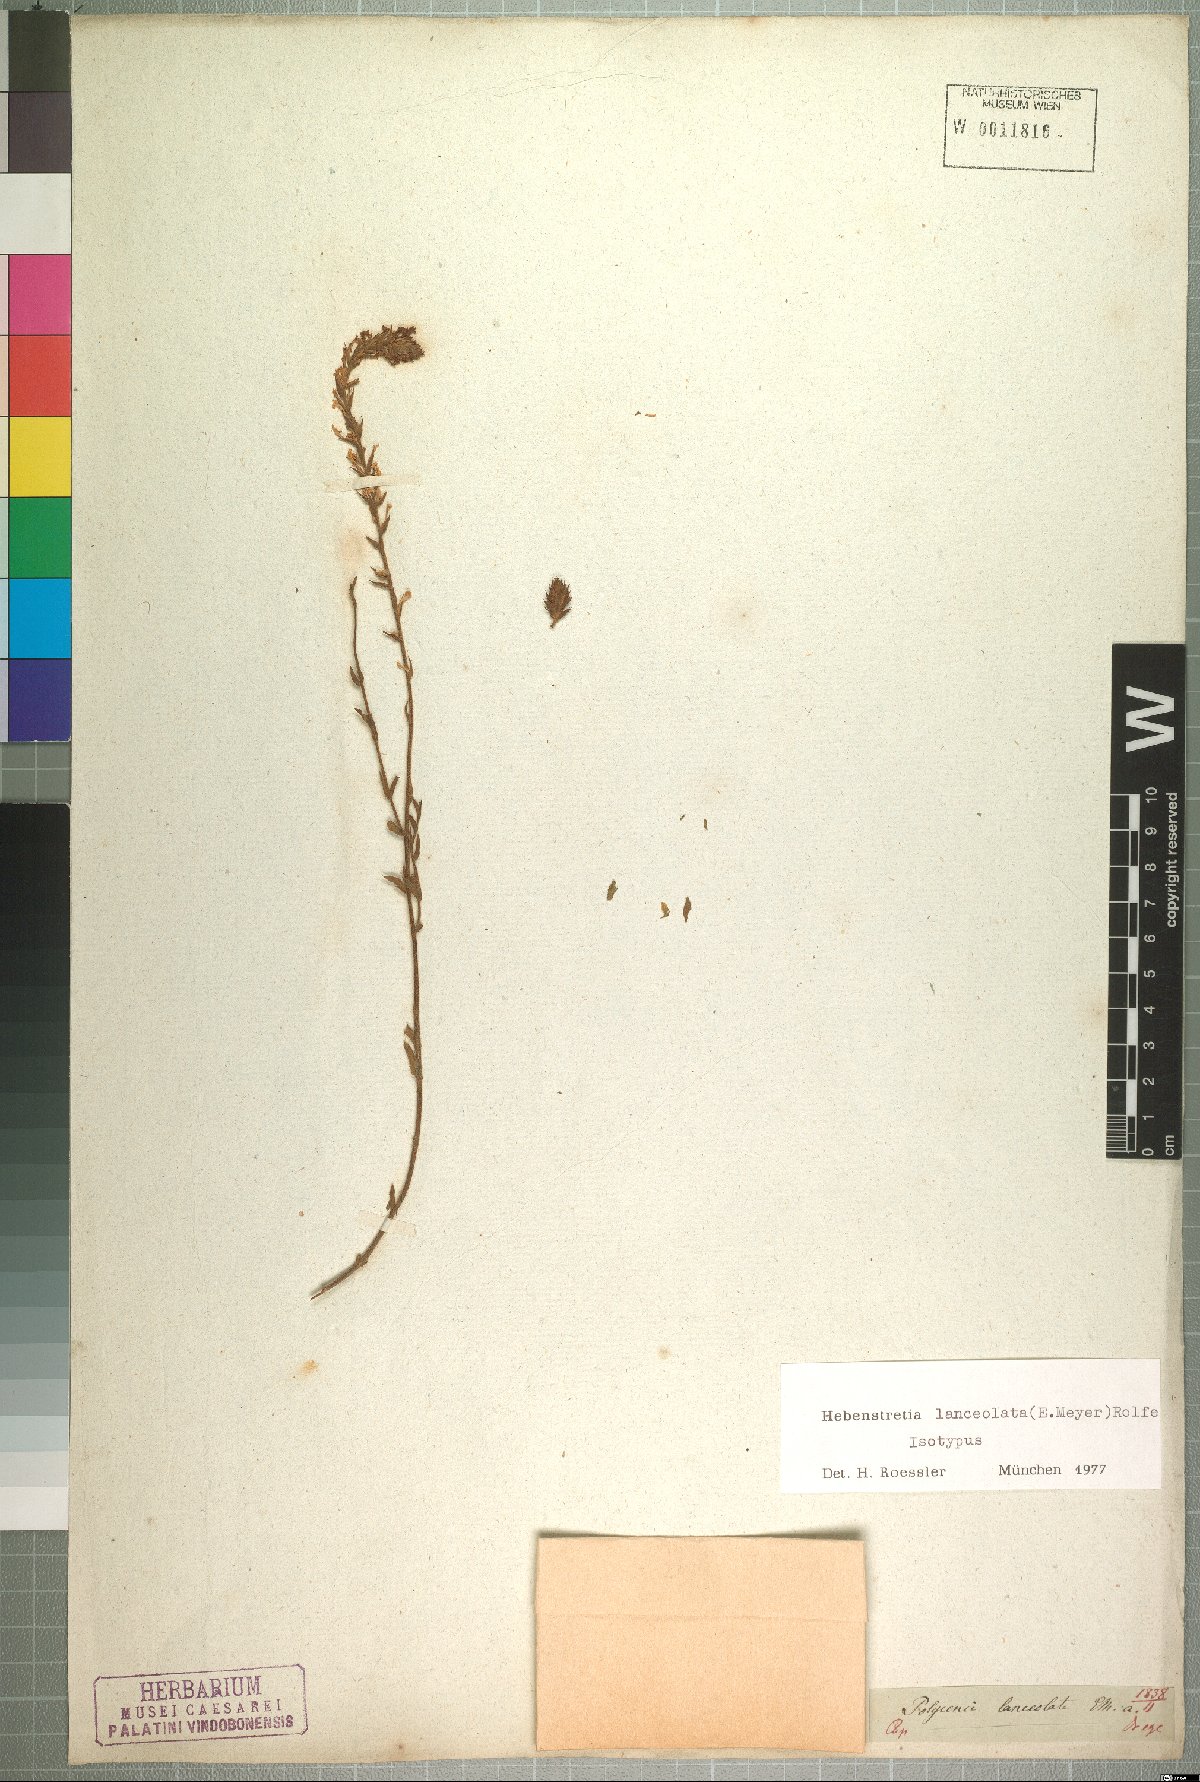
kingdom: Plantae
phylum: Tracheophyta
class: Magnoliopsida
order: Lamiales
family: Scrophulariaceae
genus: Hebenstretia
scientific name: Hebenstretia lanceolata
